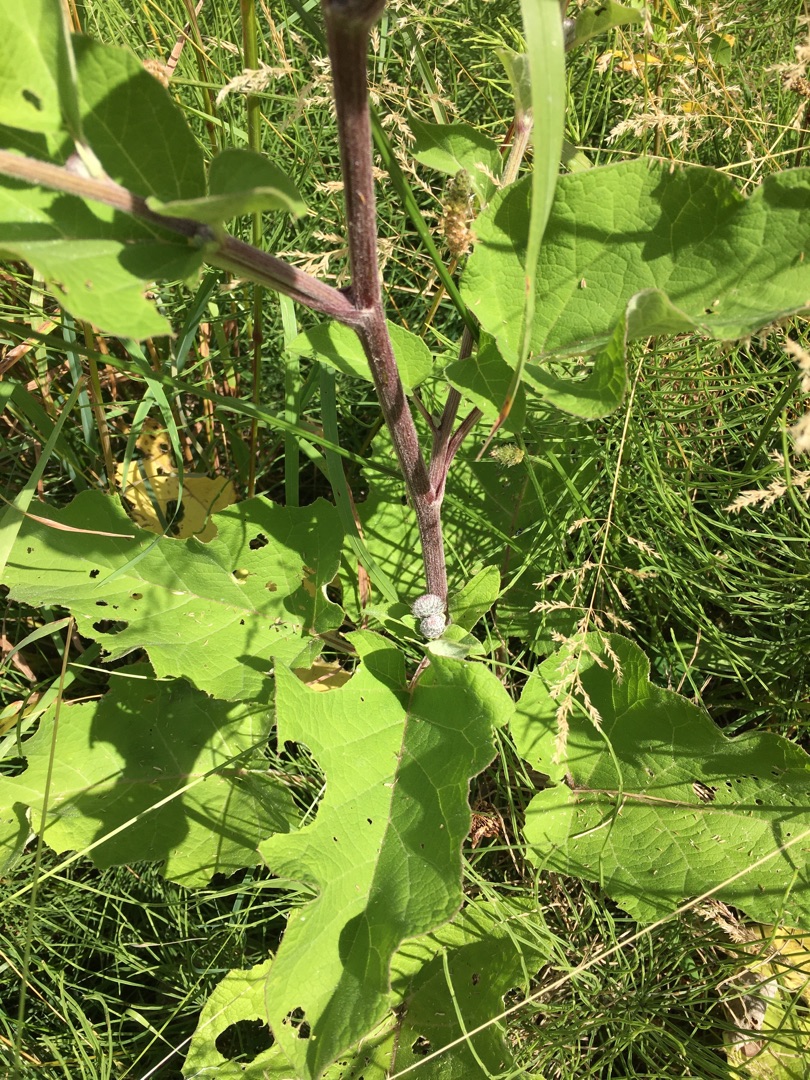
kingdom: Plantae
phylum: Tracheophyta
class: Magnoliopsida
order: Asterales
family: Asteraceae
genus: Arctium
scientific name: Arctium tomentosum
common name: Filtet burre
